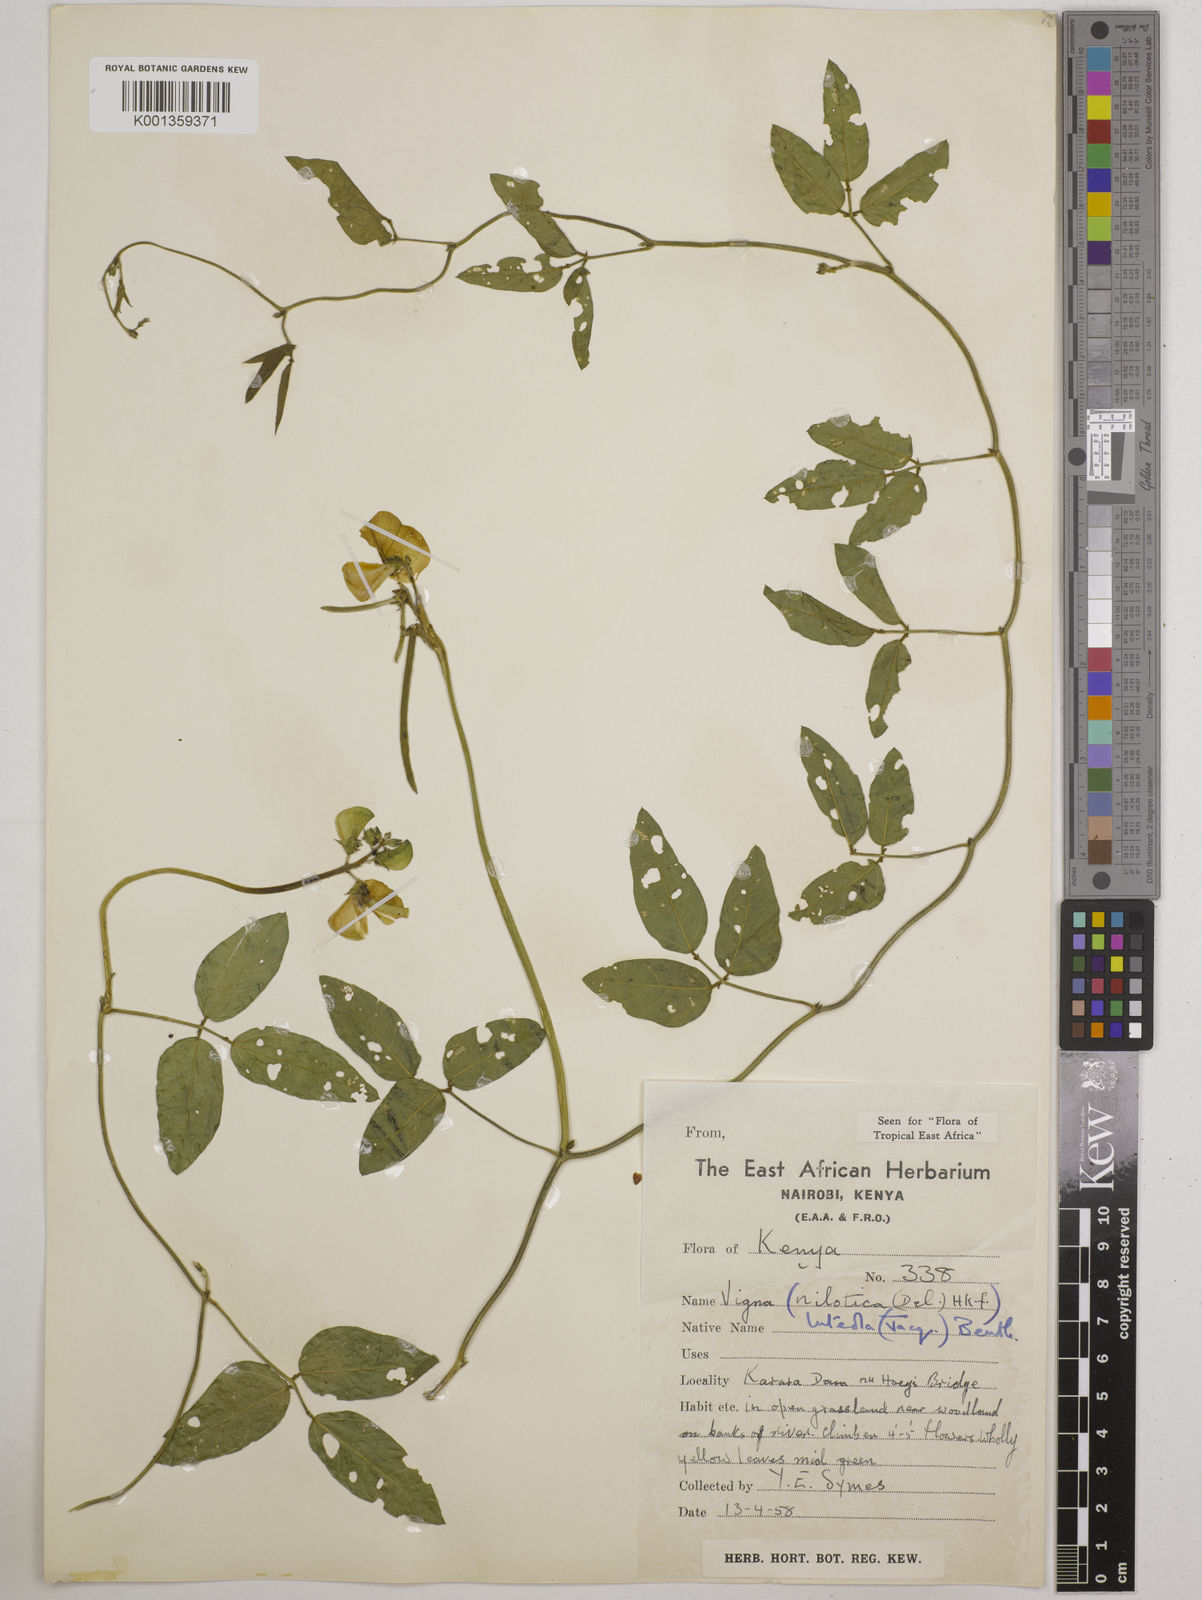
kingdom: Plantae
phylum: Tracheophyta
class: Magnoliopsida
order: Fabales
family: Fabaceae
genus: Vigna
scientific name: Vigna luteola
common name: Hairypod cowpea
